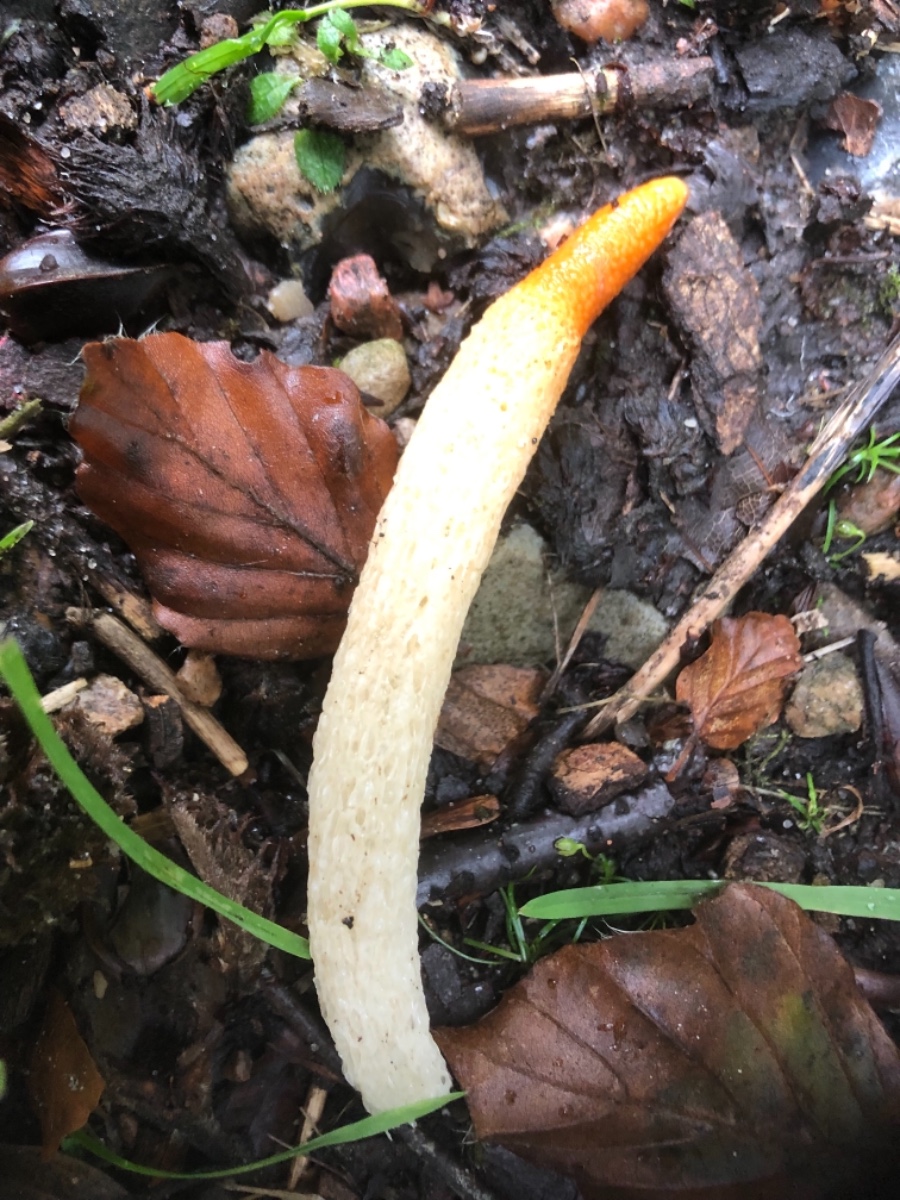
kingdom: Fungi
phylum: Basidiomycota
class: Agaricomycetes
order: Phallales
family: Phallaceae
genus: Mutinus
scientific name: Mutinus caninus
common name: hunde-stinksvamp
